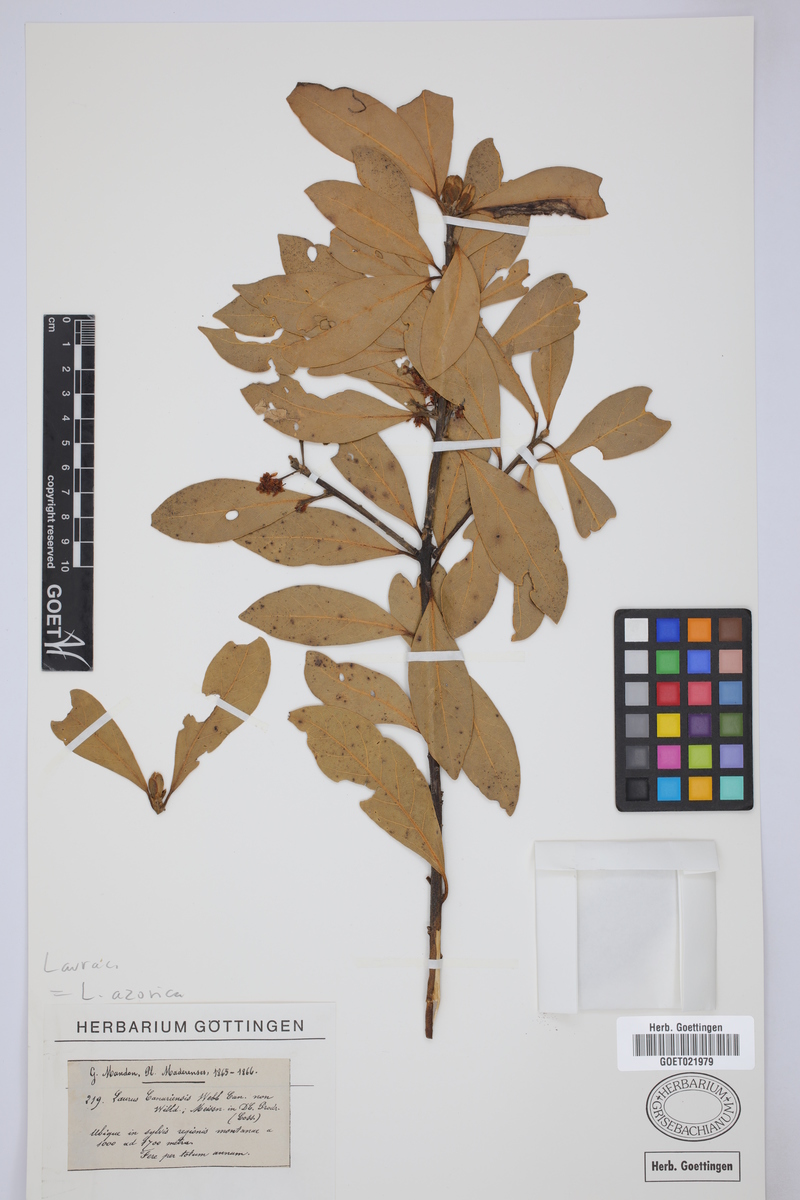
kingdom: Plantae
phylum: Tracheophyta
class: Magnoliopsida
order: Laurales
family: Lauraceae
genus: Laurus
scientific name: Laurus azorica
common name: Macaronesian laurel
